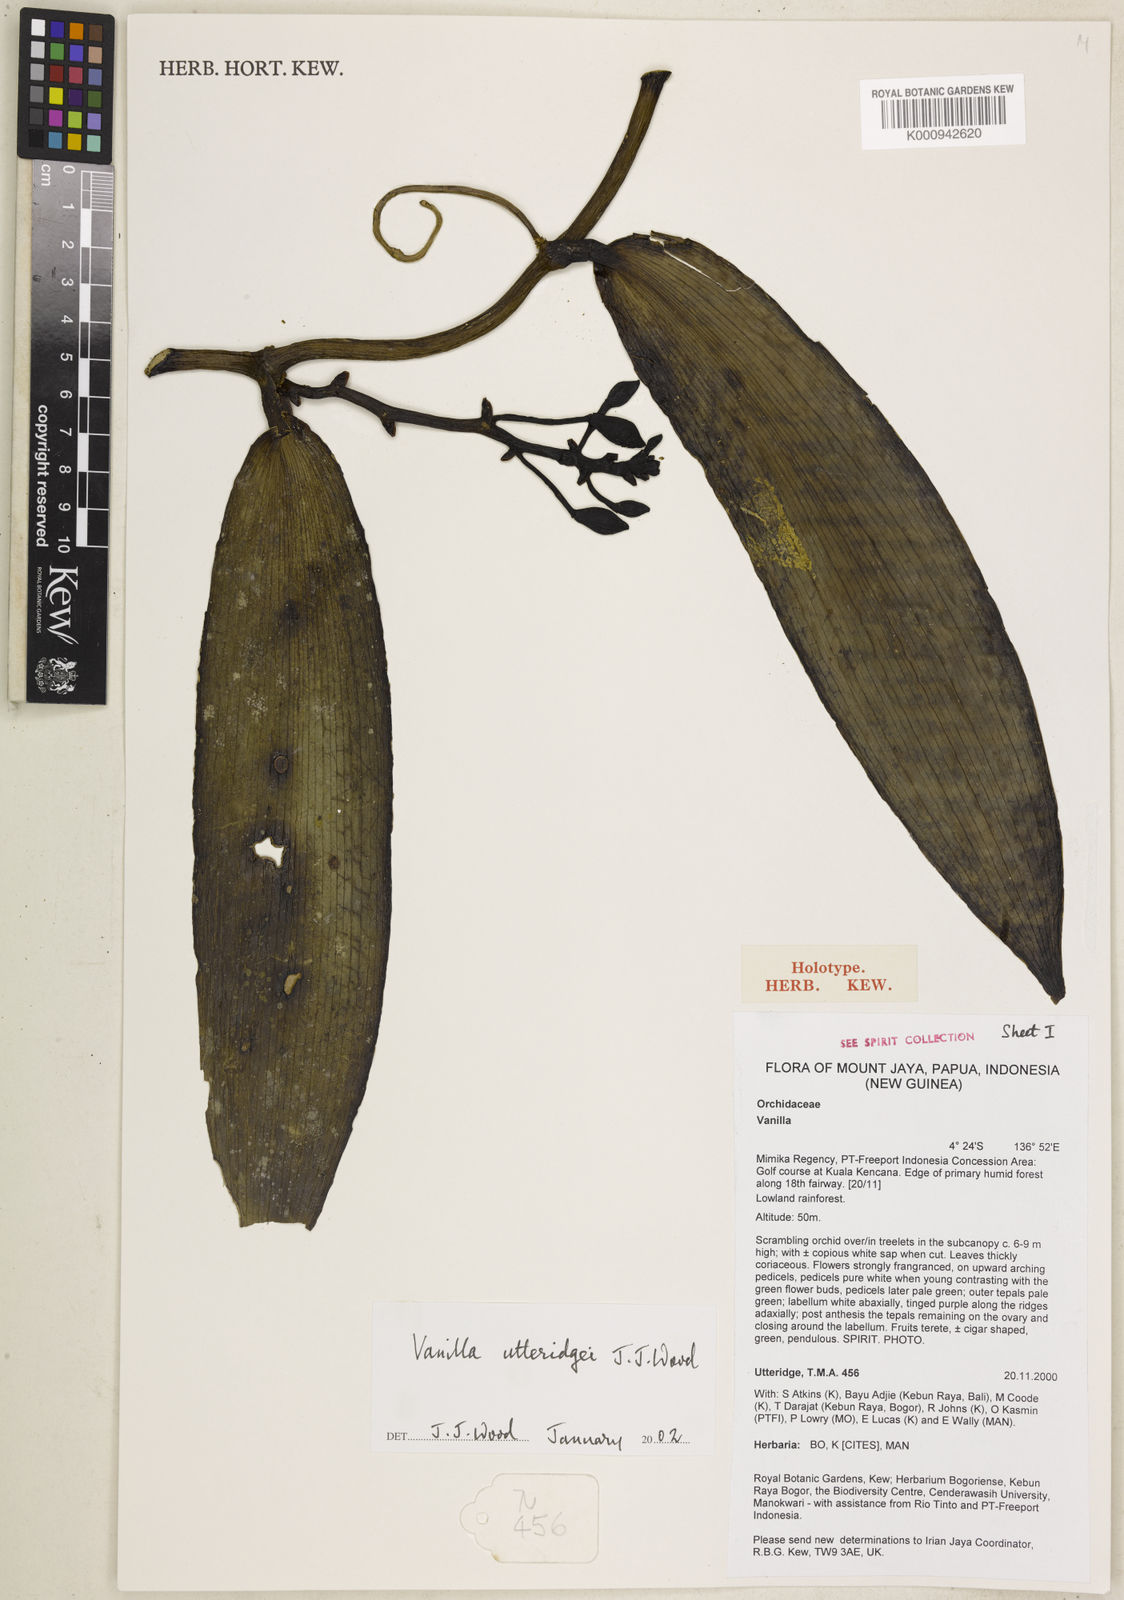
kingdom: Plantae
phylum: Tracheophyta
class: Liliopsida
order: Asparagales
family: Orchidaceae
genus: Vanilla
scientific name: Vanilla utteridgei
